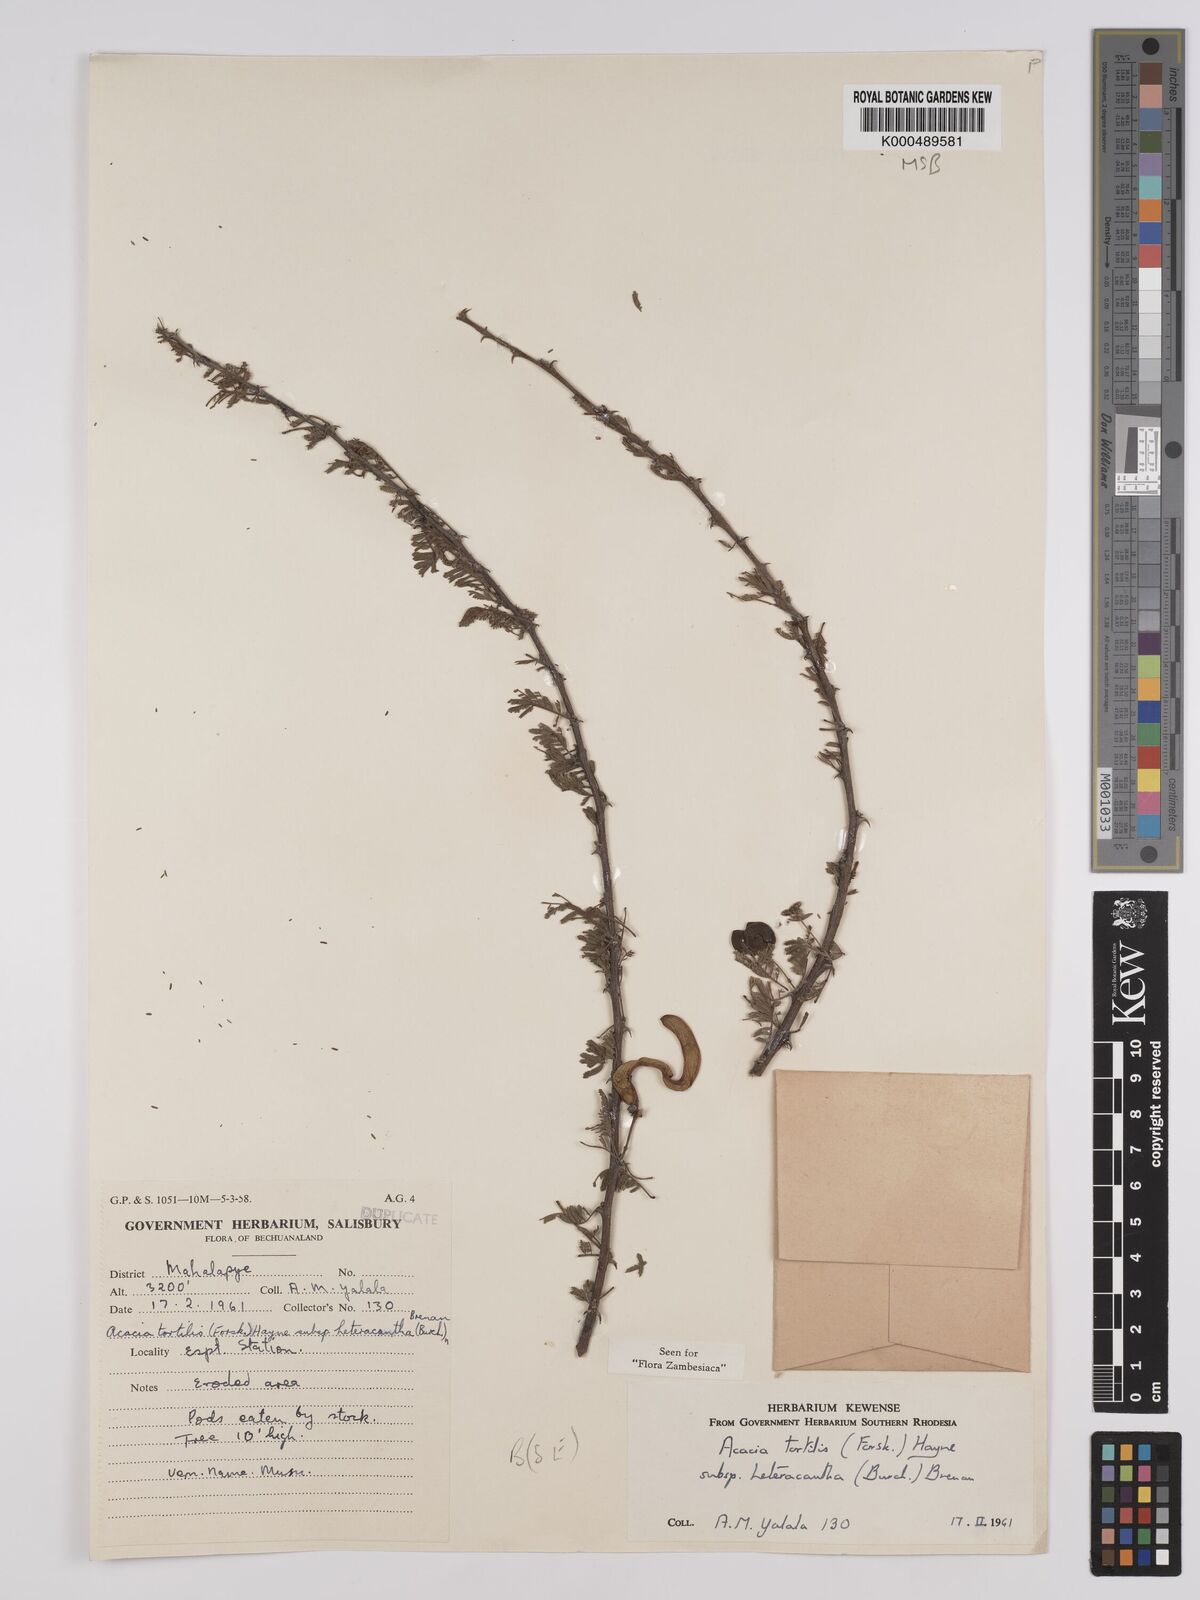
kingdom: Plantae
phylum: Tracheophyta
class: Magnoliopsida
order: Fabales
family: Fabaceae
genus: Vachellia
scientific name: Vachellia tortilis
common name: Umbrella thorn acacia
